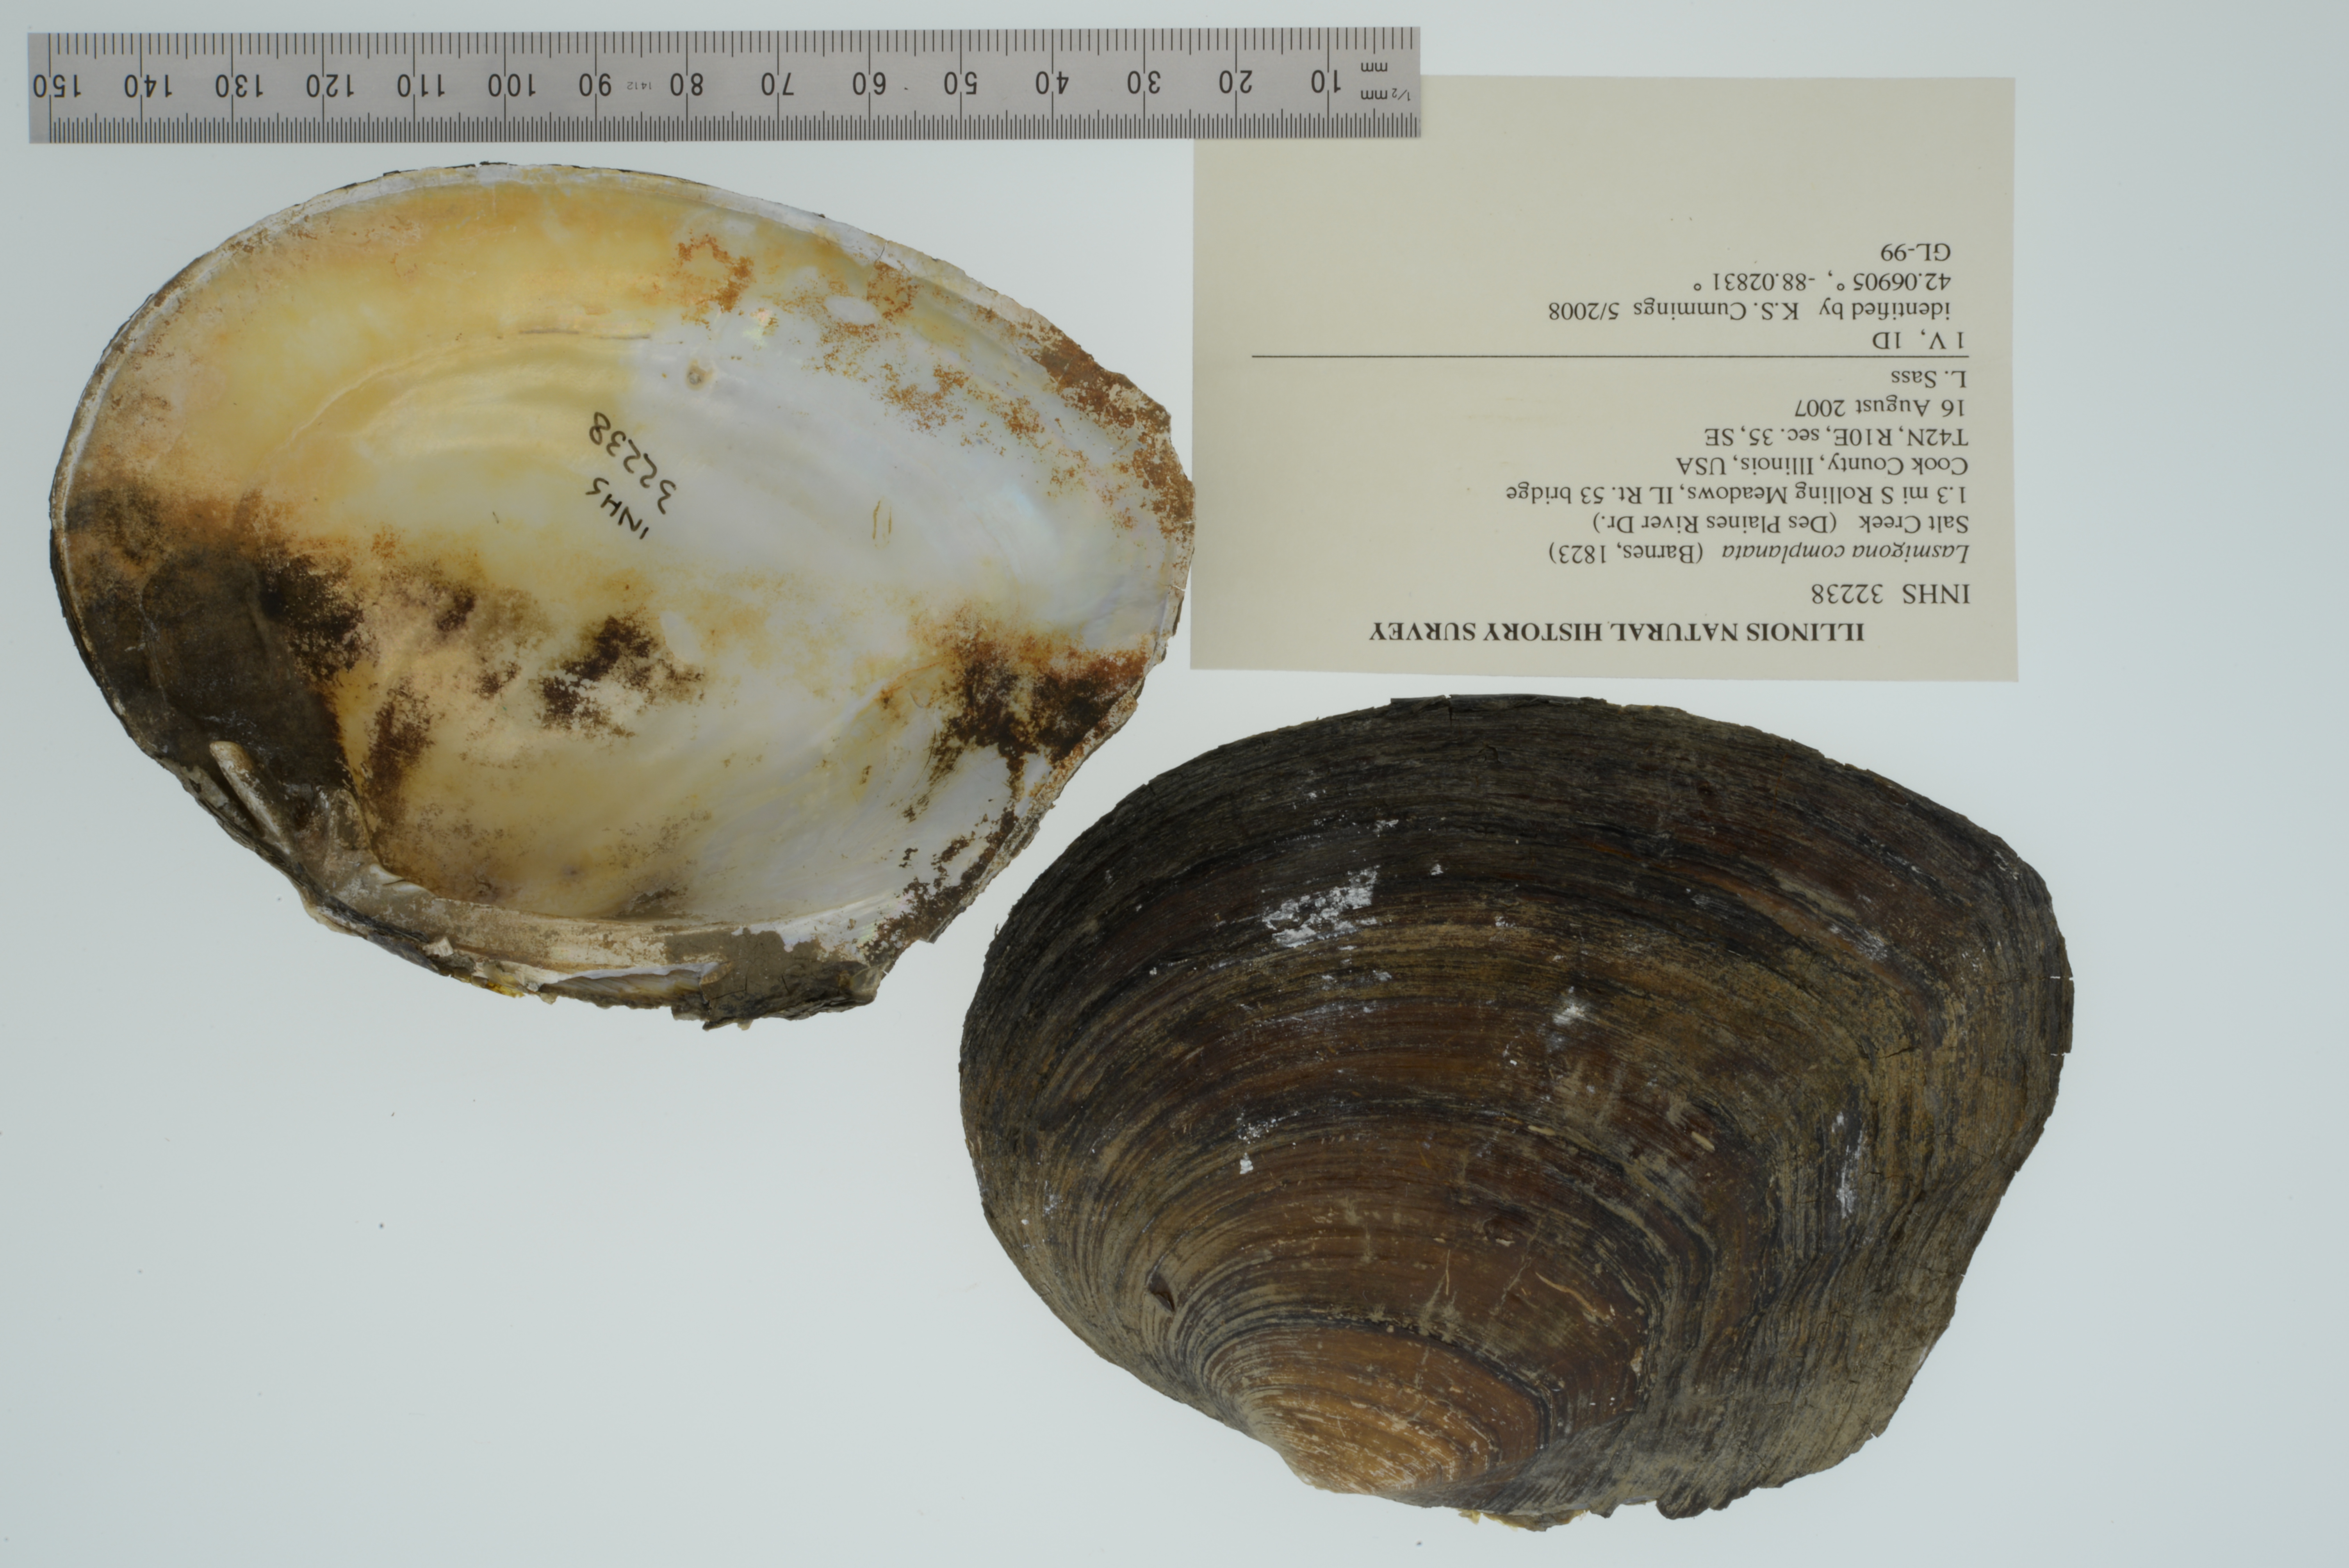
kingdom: Animalia
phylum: Mollusca
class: Bivalvia
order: Unionida
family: Unionidae
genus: Lasmigona
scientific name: Lasmigona complanata
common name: White heelsplitter
